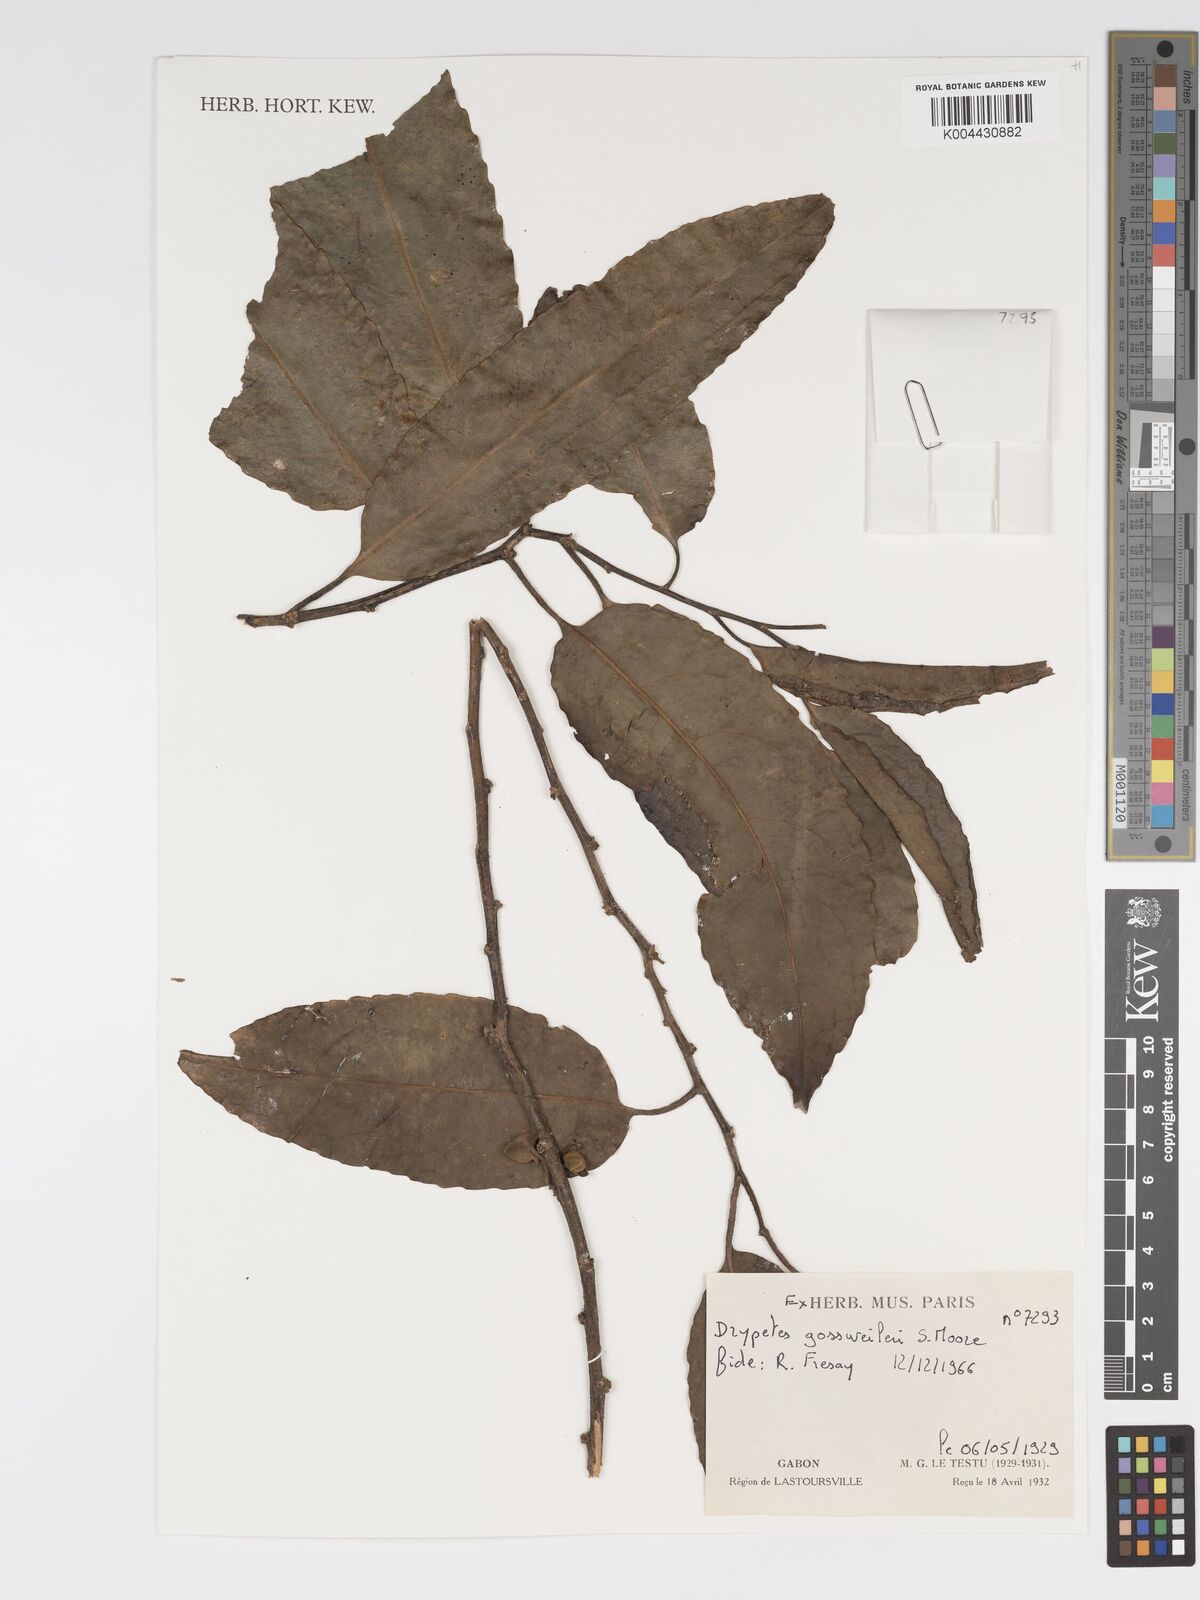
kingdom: Plantae
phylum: Tracheophyta
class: Magnoliopsida
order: Malpighiales
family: Putranjivaceae
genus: Drypetes
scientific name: Drypetes gossweileri
